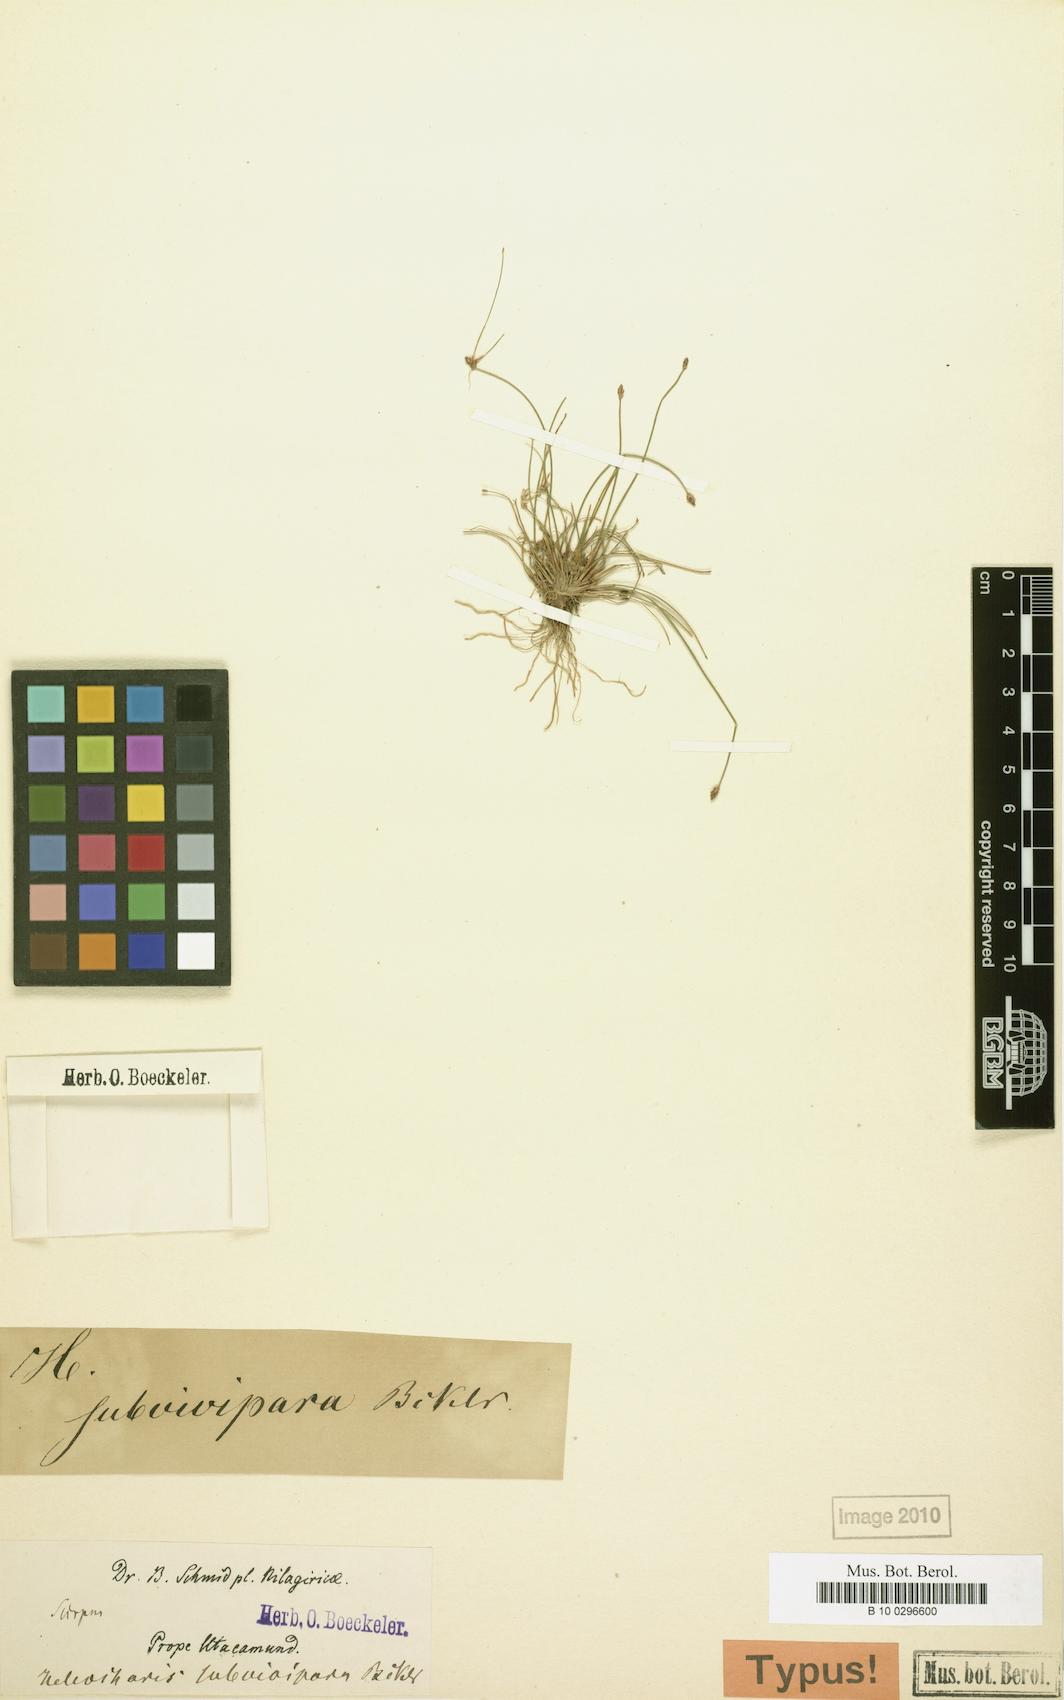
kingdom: Plantae
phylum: Tracheophyta
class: Liliopsida
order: Poales
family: Cyperaceae
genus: Eleocharis
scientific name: Eleocharis caespitosissima
